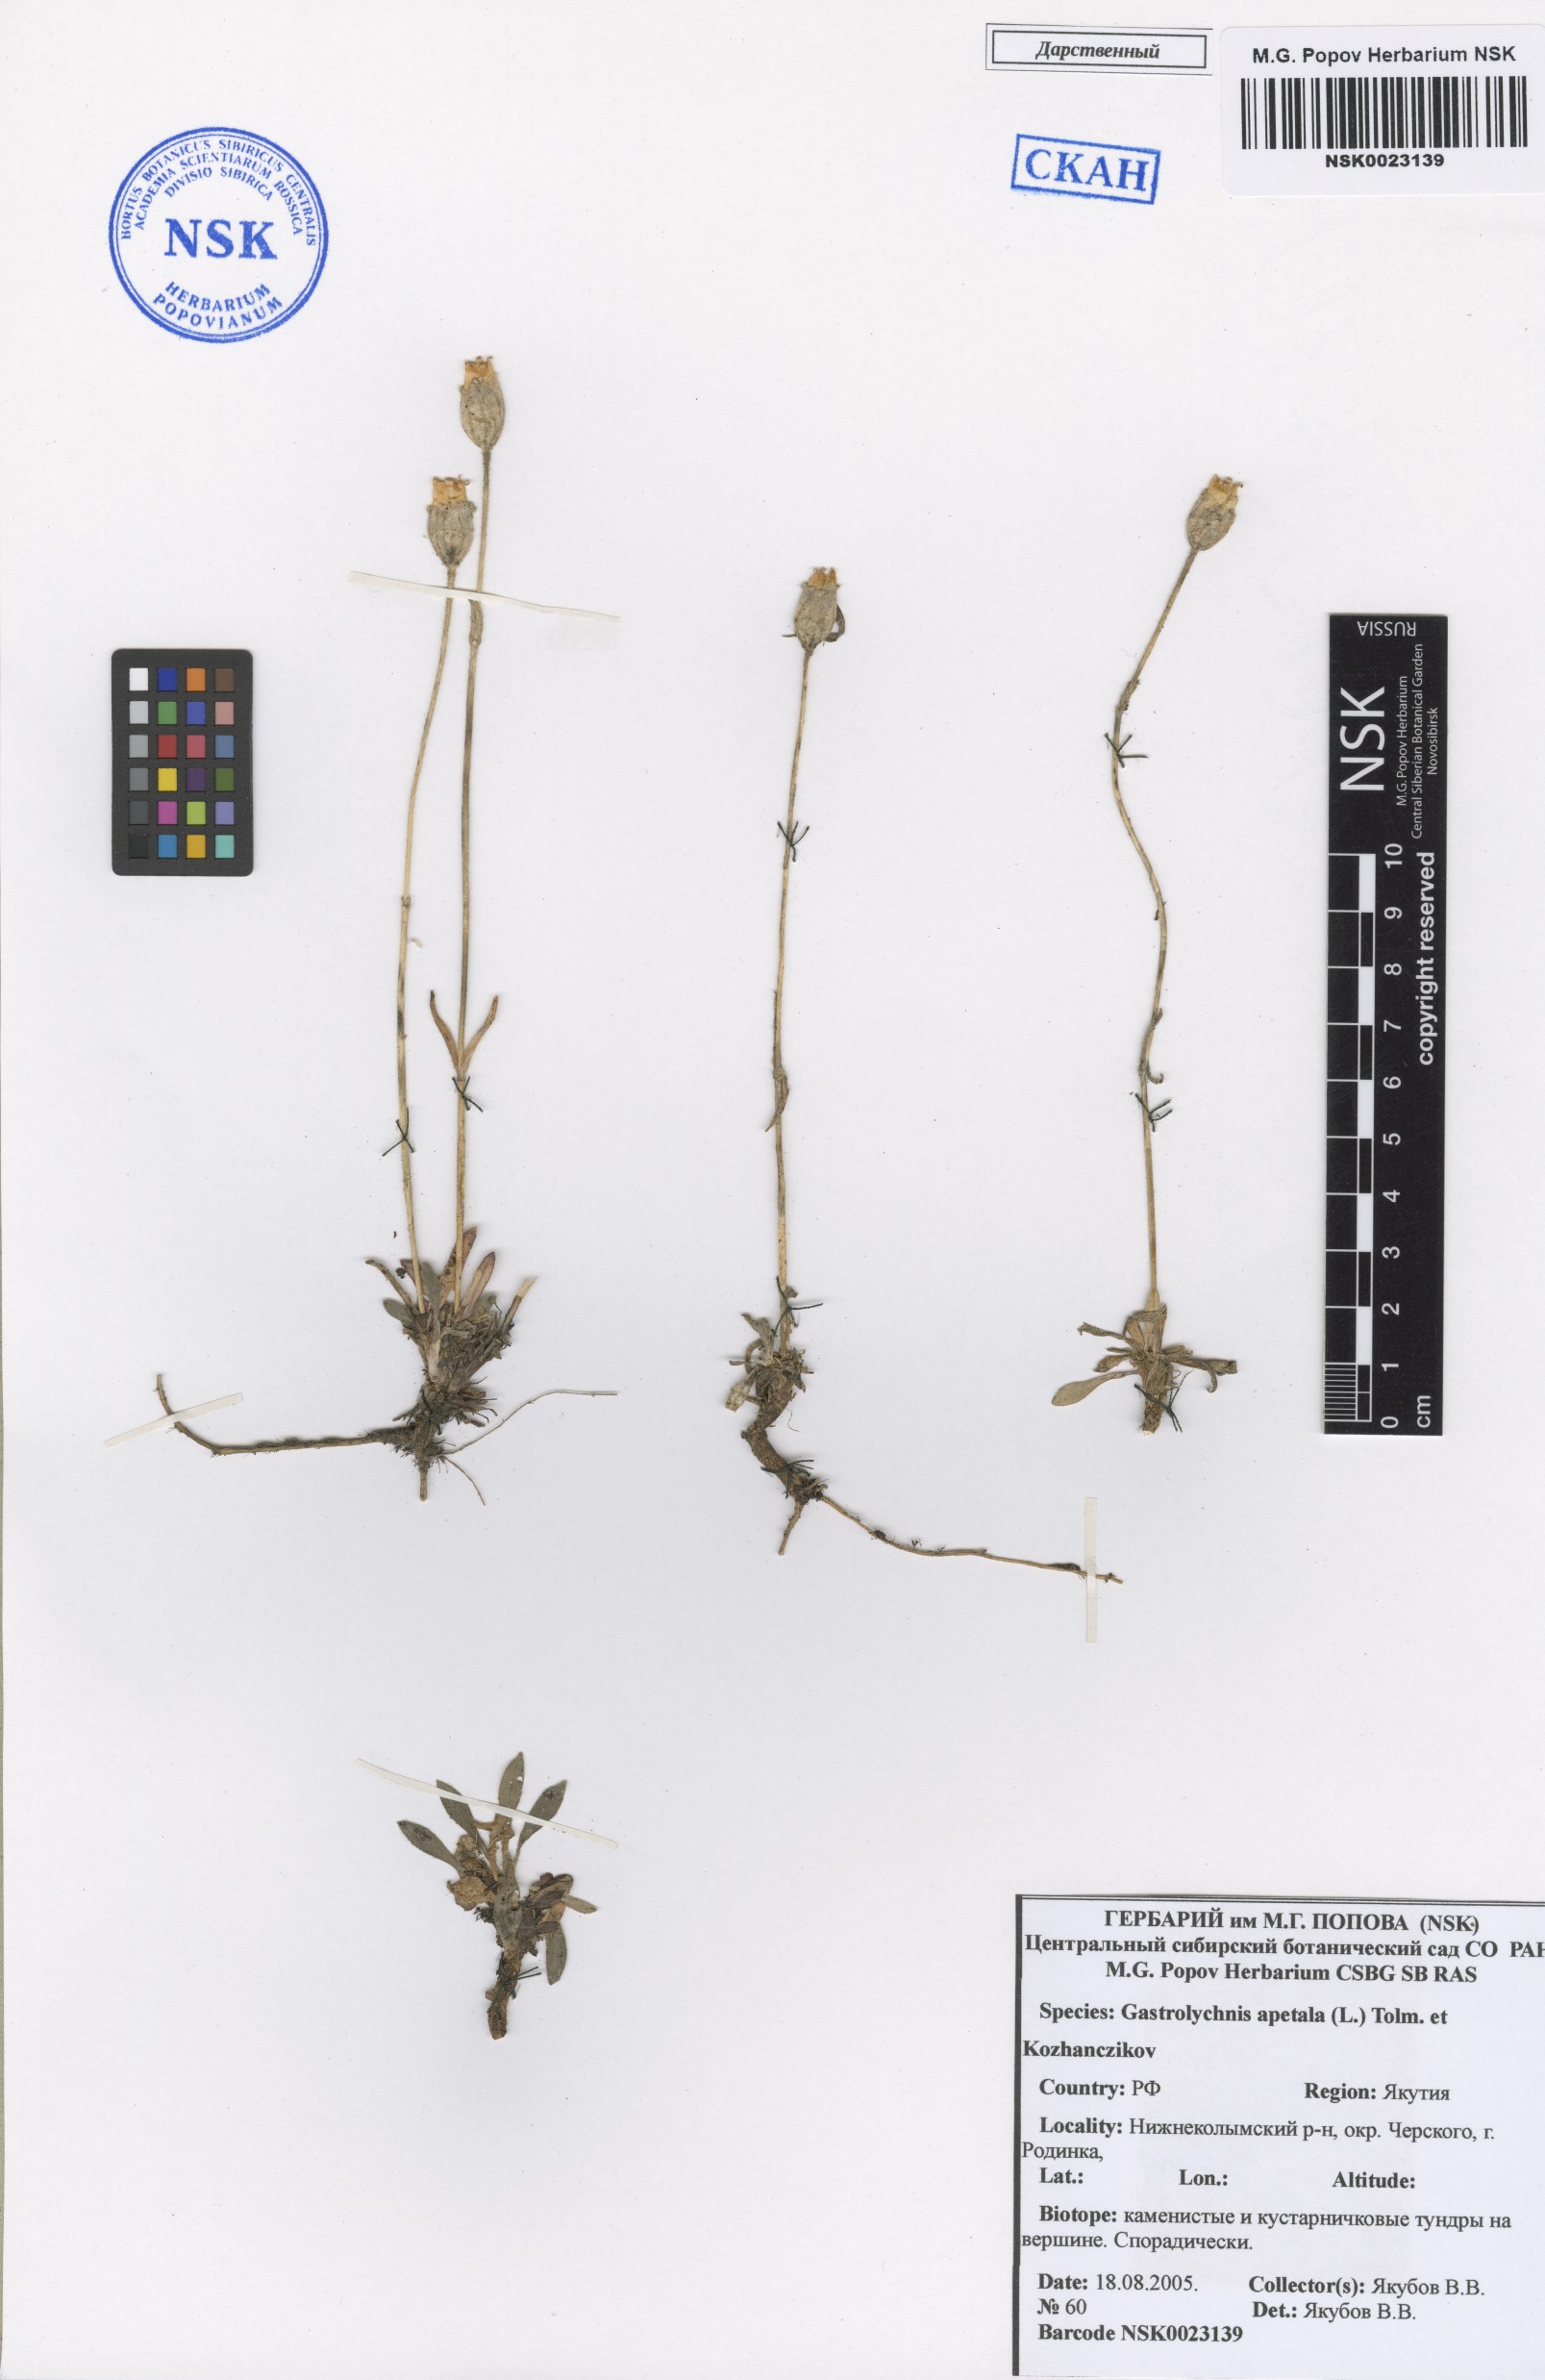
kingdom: Plantae
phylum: Tracheophyta
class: Magnoliopsida
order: Caryophyllales
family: Caryophyllaceae
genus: Silene
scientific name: Silene wahlbergella
